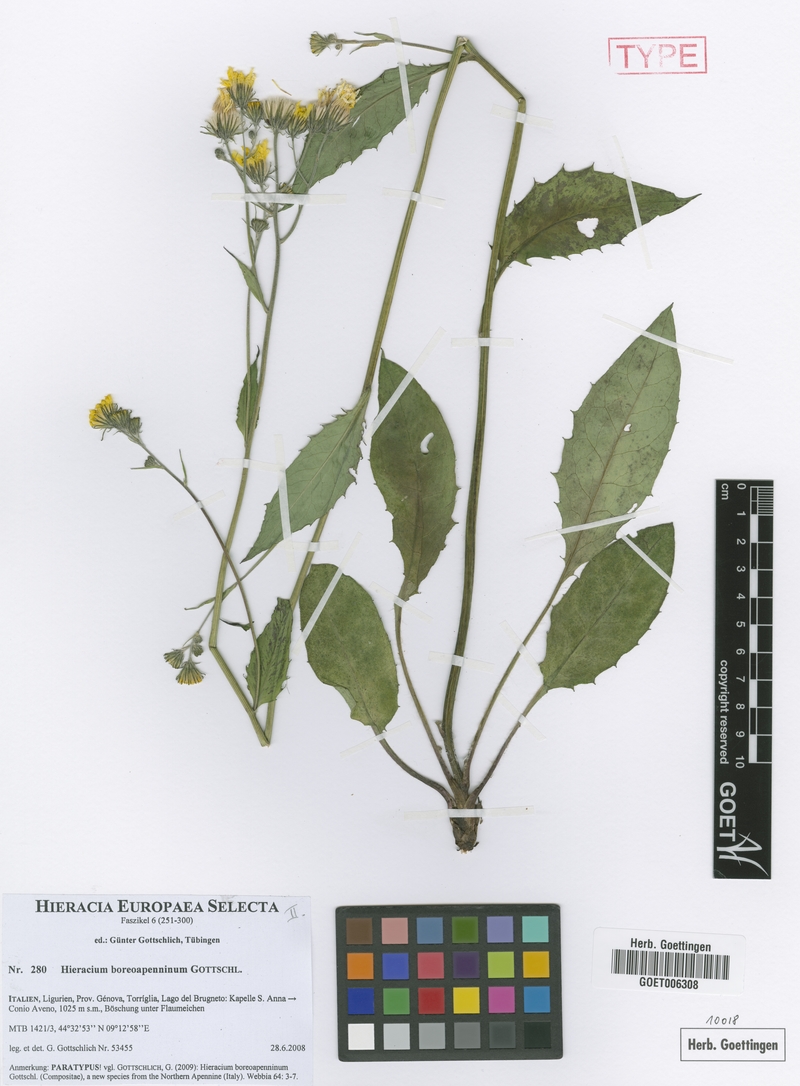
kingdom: Plantae
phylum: Tracheophyta
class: Magnoliopsida
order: Asterales
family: Asteraceae
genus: Hieracium
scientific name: Hieracium boreoapenninum
